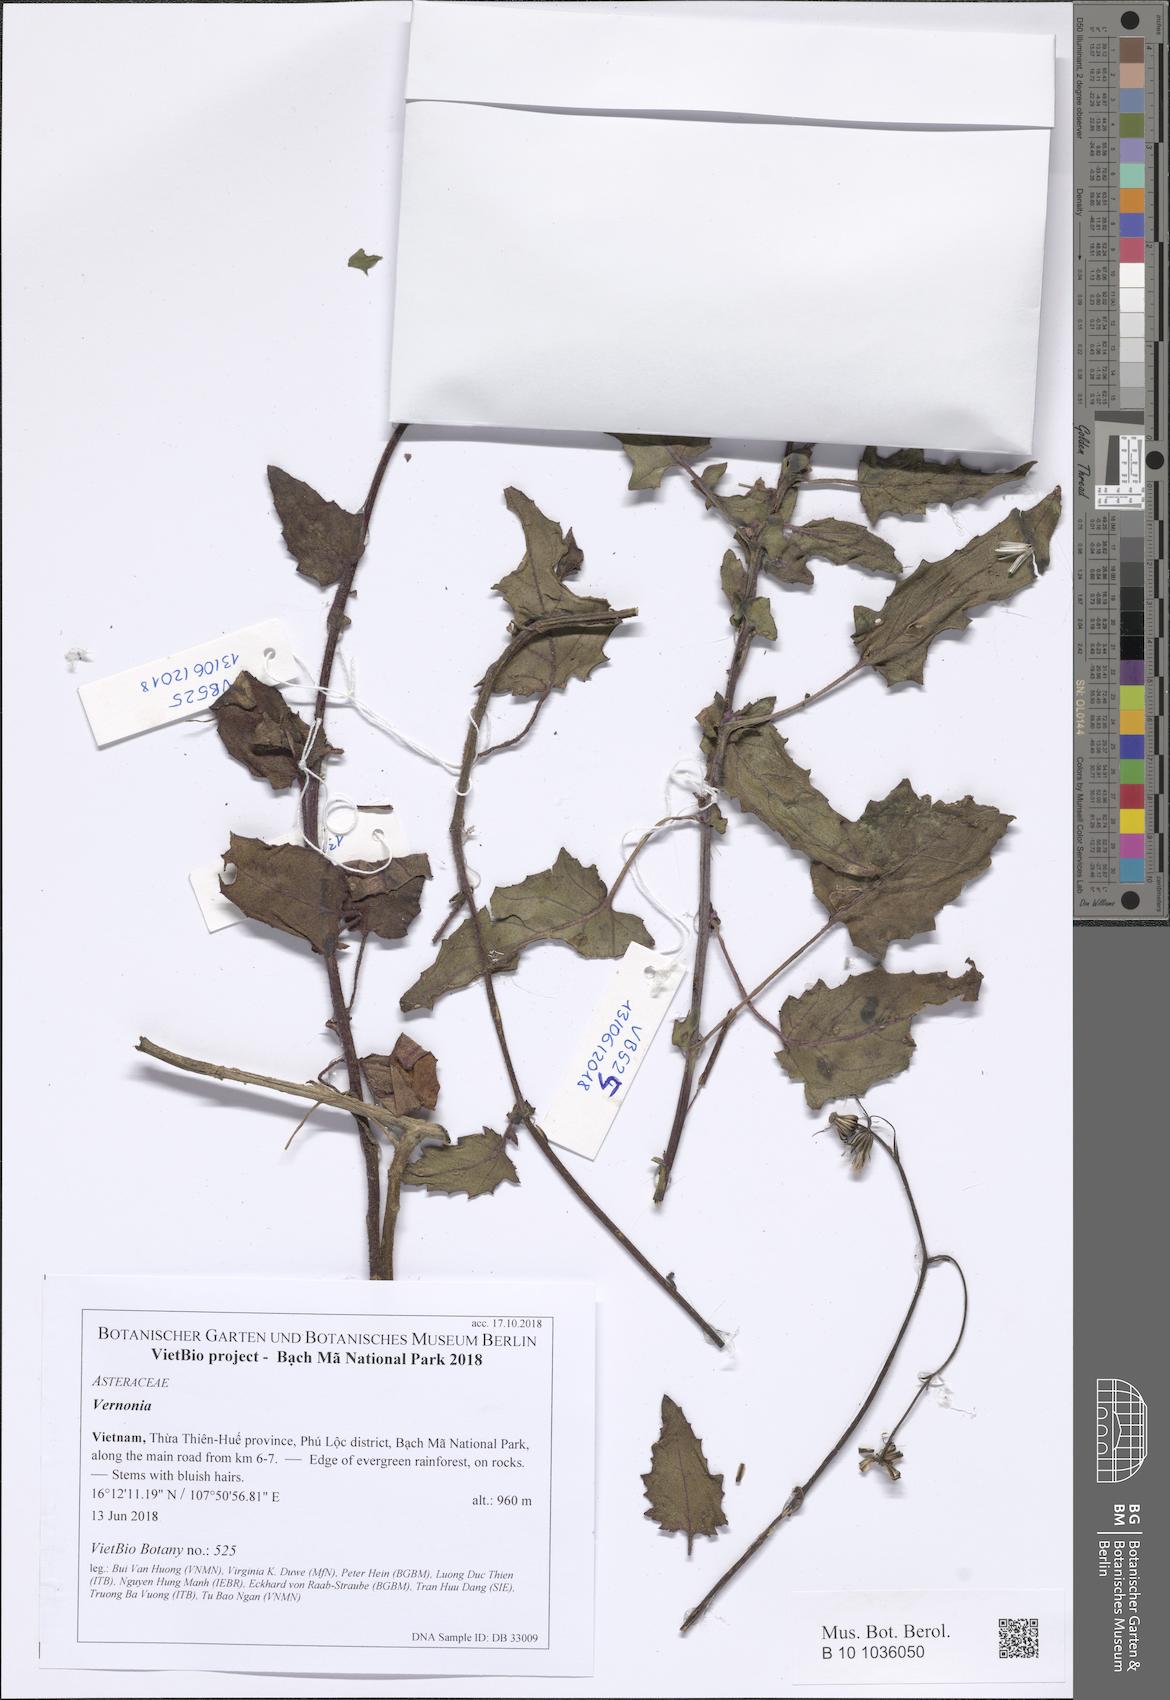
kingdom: Plantae
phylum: Tracheophyta
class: Magnoliopsida
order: Asterales
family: Asteraceae
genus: Vernonia
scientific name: Vernonia
